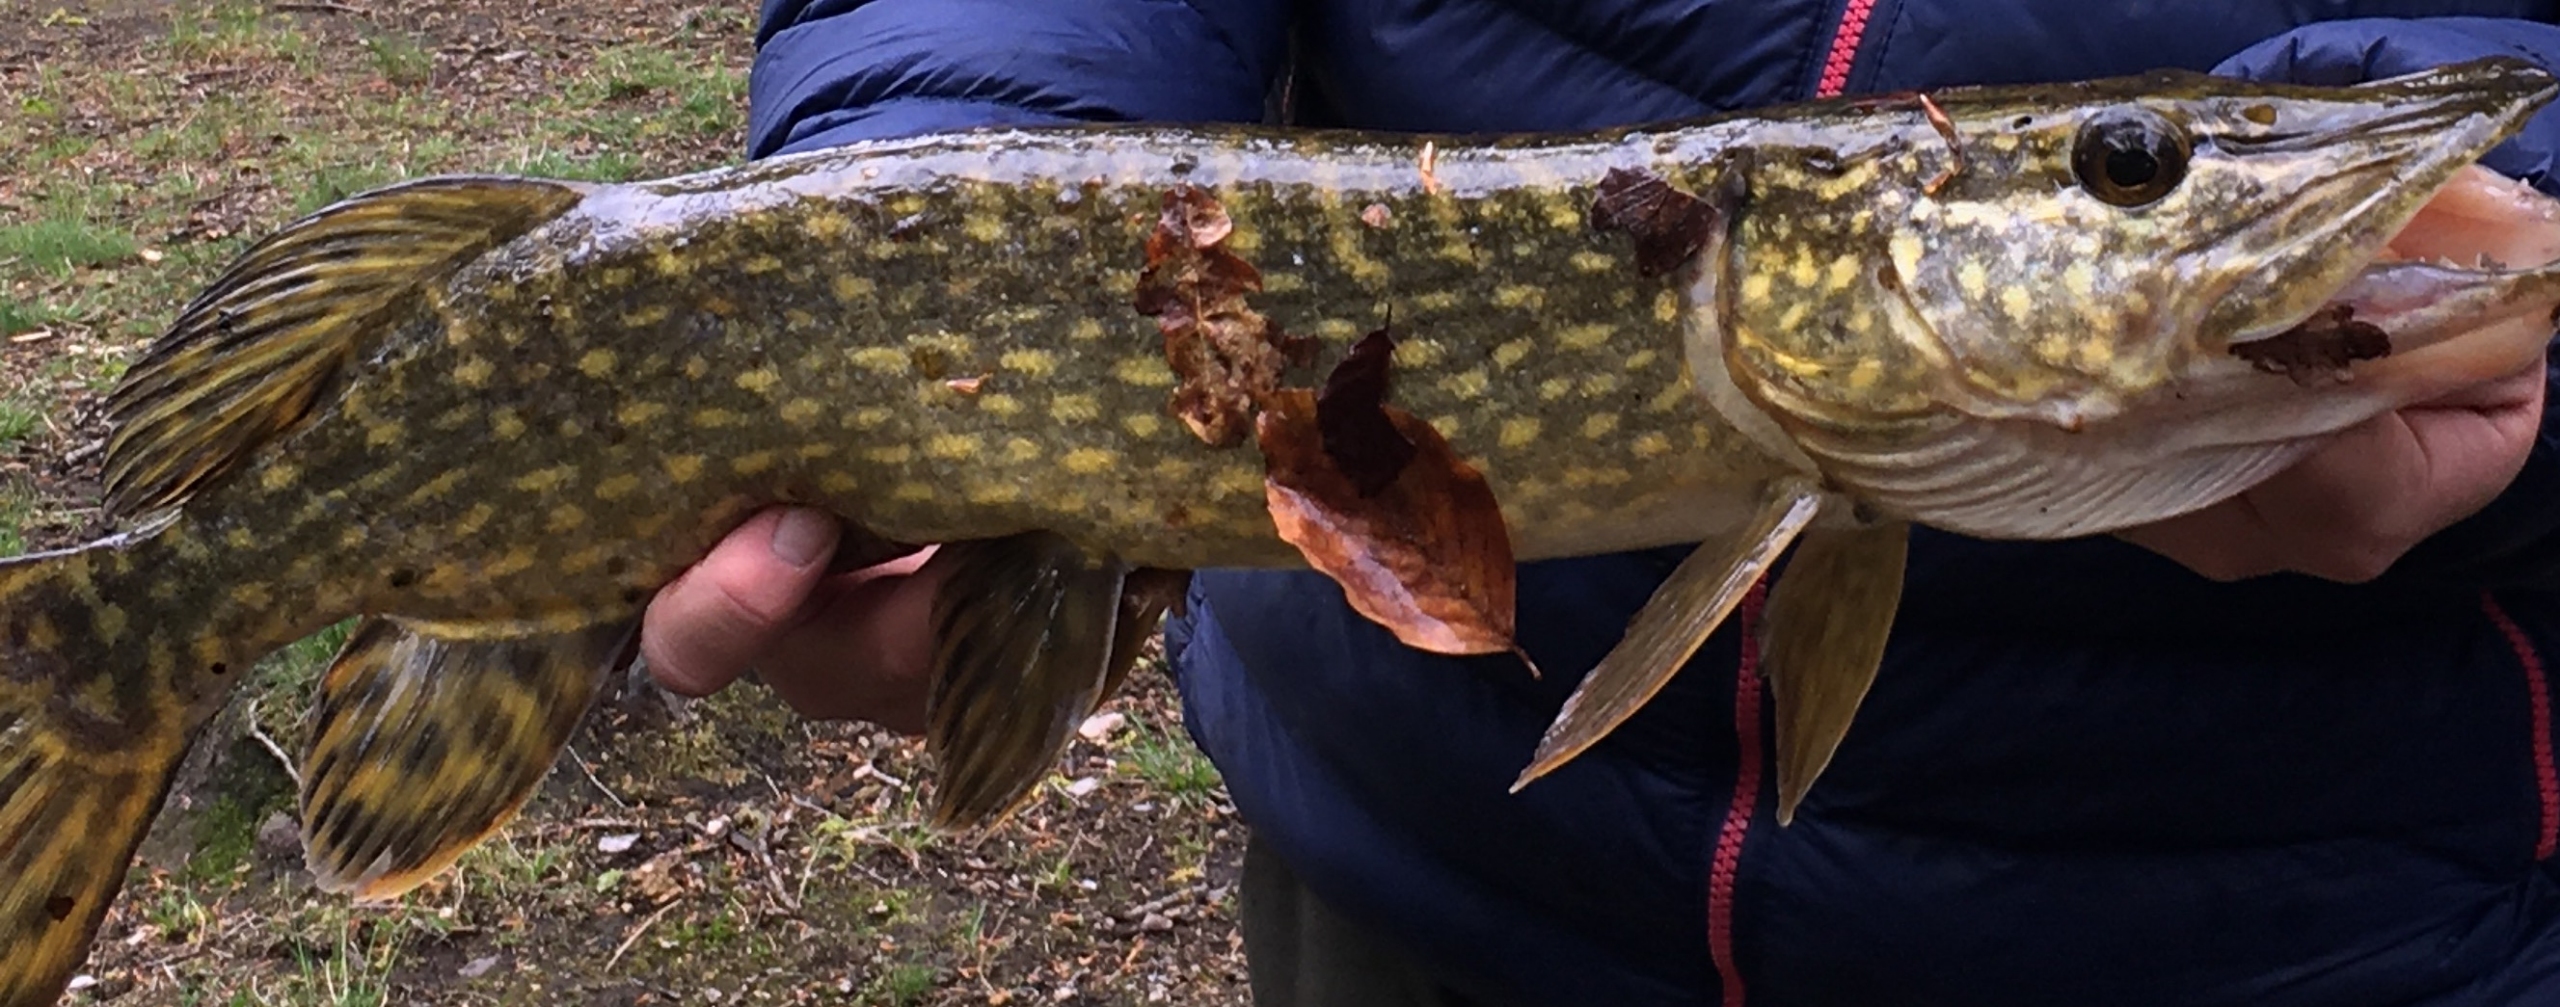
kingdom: Animalia
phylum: Chordata
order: Esociformes
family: Esocidae
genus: Esox
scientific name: Esox lucius
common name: Gedde
